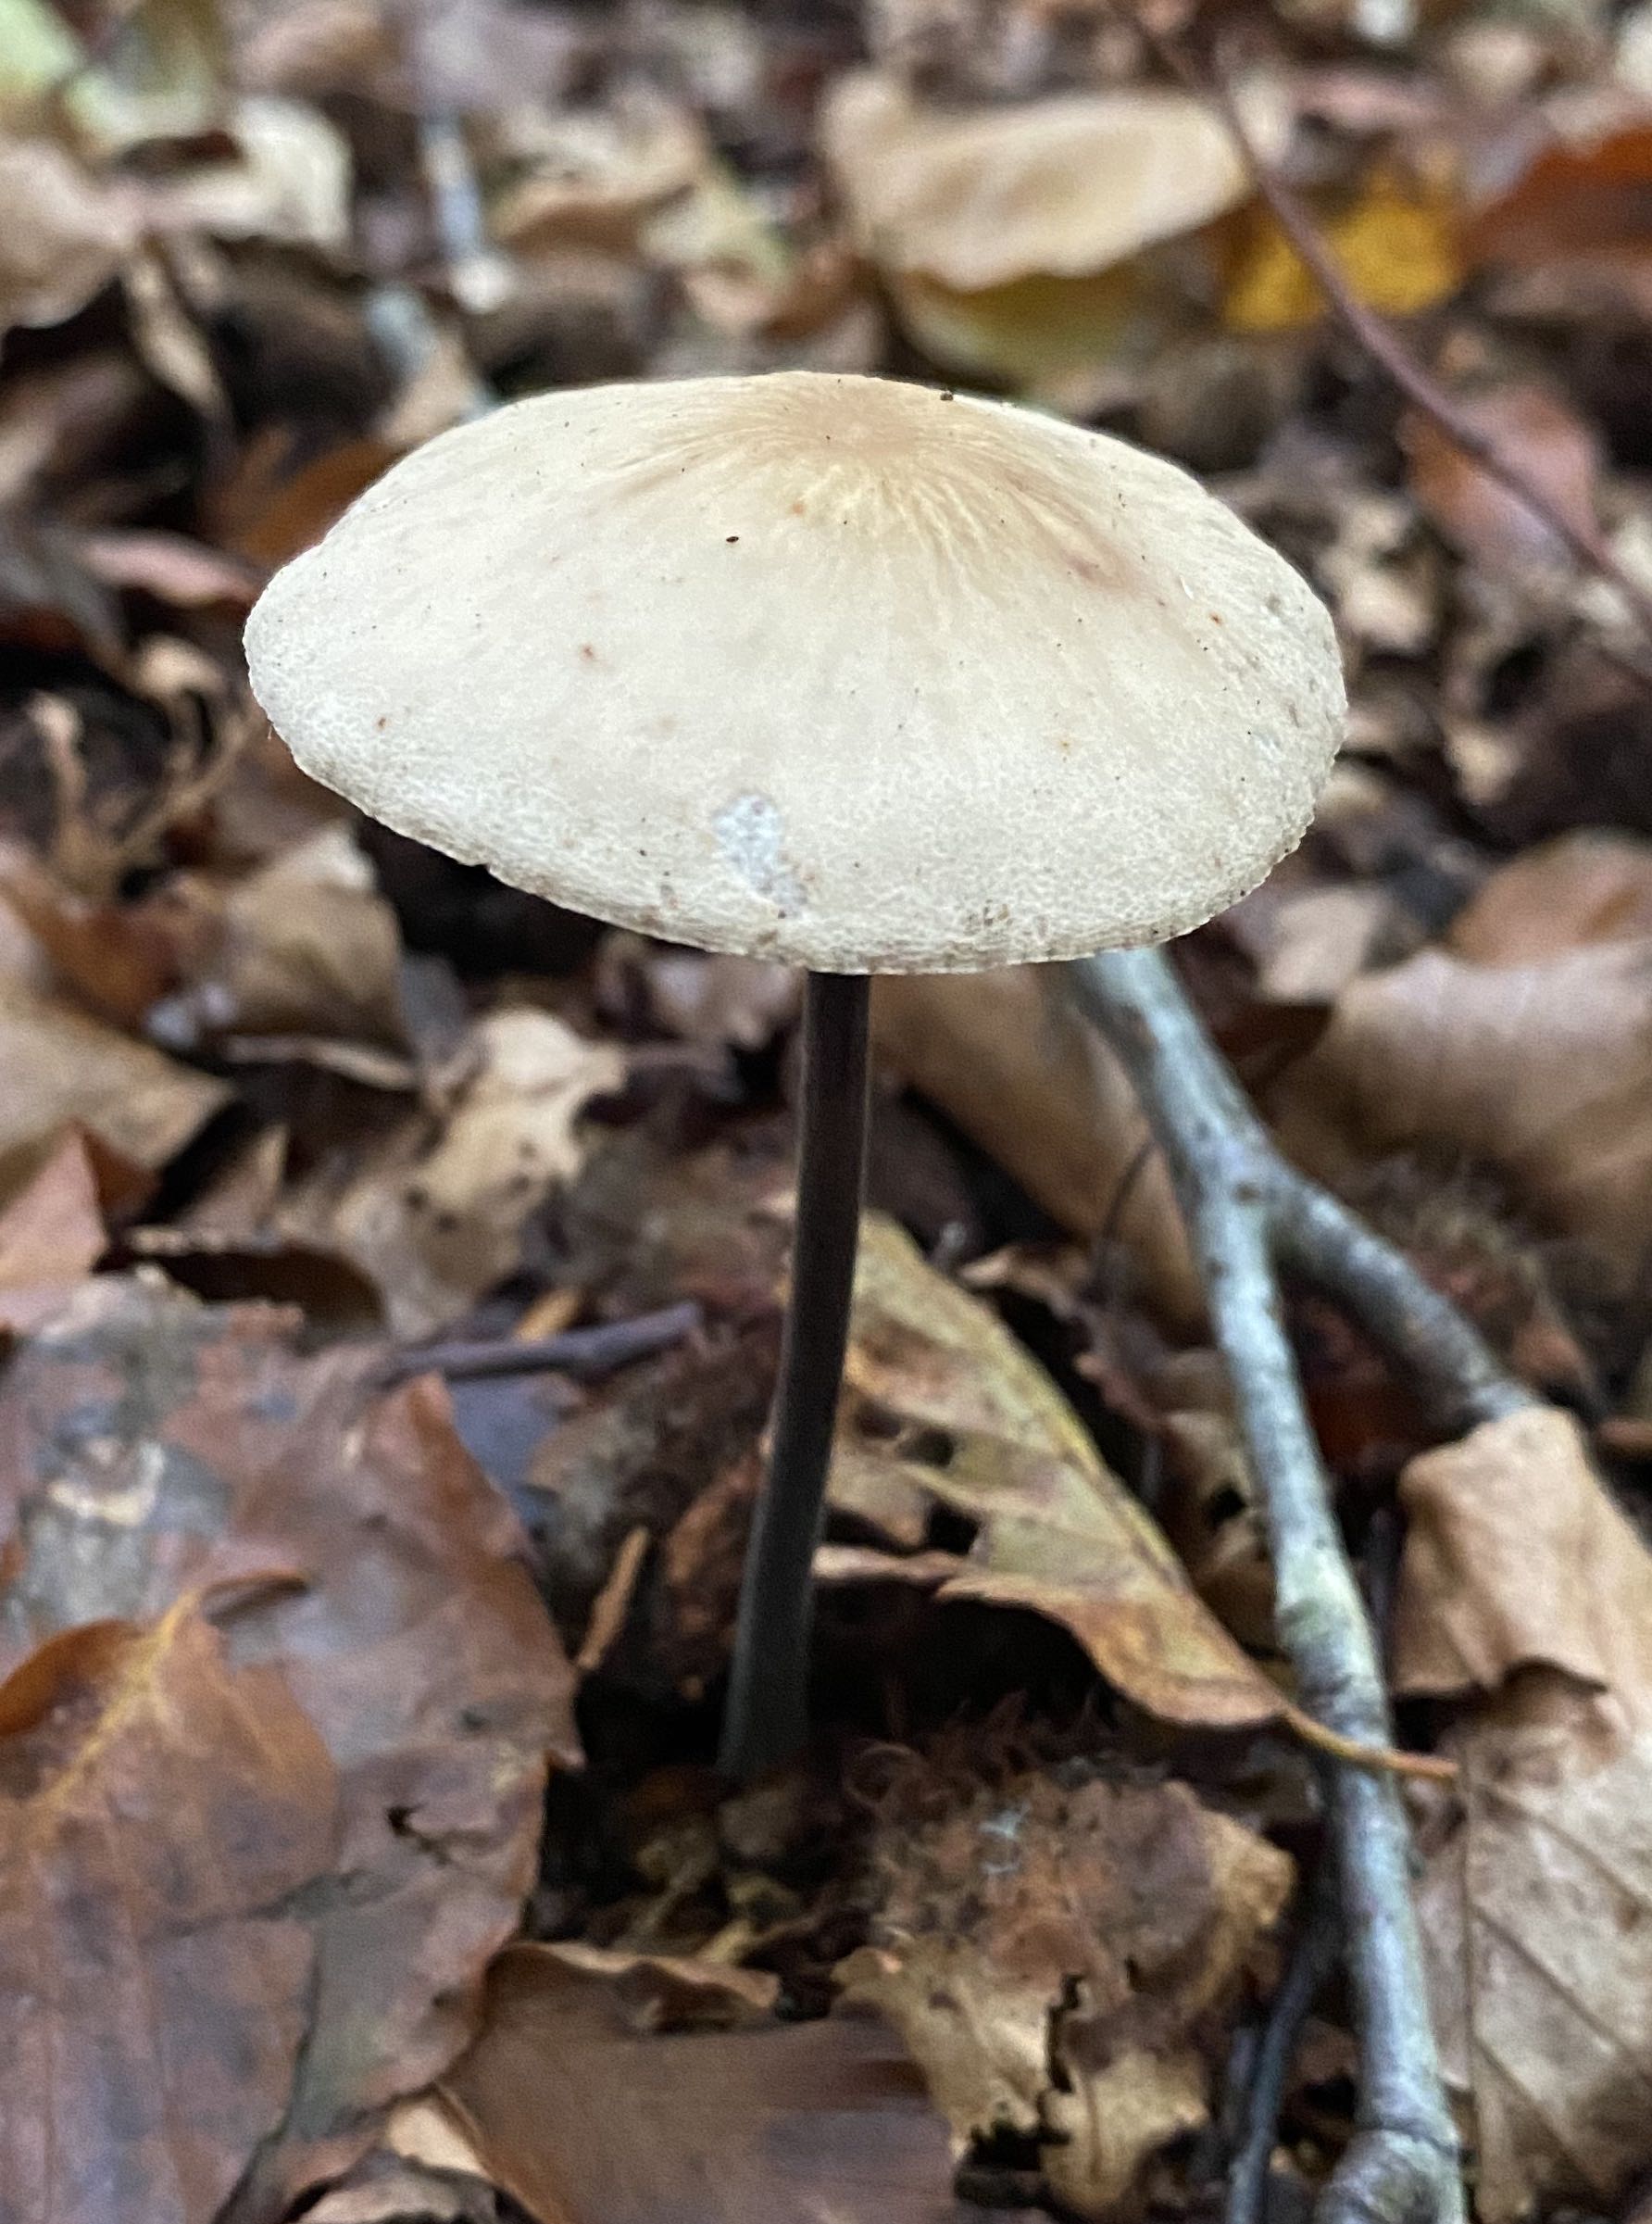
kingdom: Fungi
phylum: Basidiomycota
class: Agaricomycetes
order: Agaricales
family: Omphalotaceae
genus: Mycetinis
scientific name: Mycetinis alliaceus
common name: stor løghat
